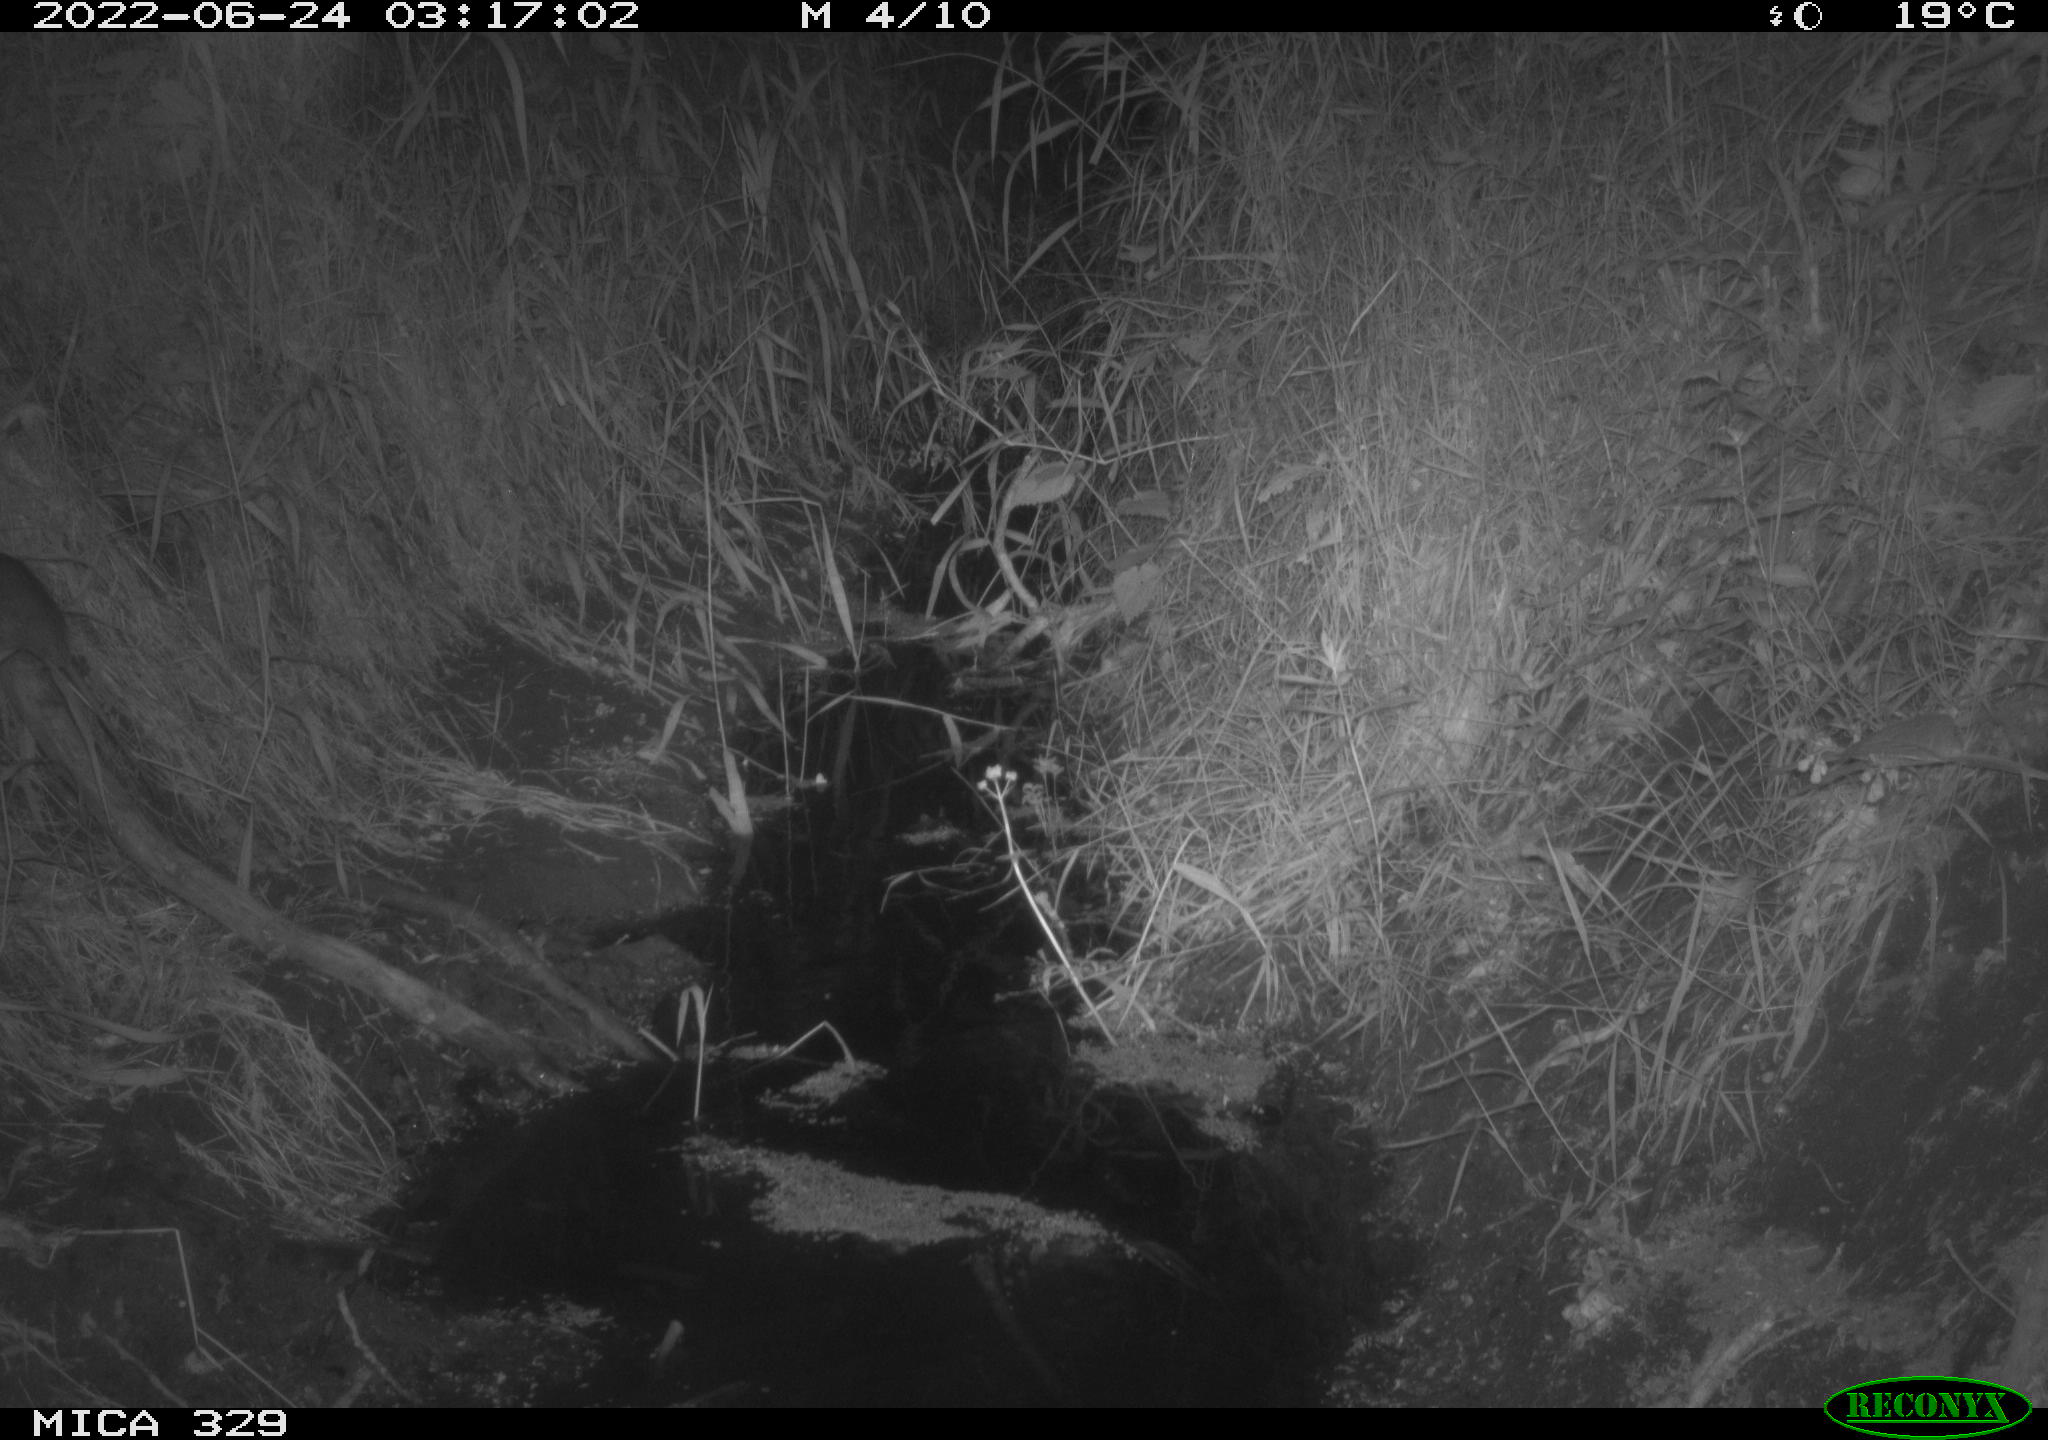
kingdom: Animalia
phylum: Chordata
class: Mammalia
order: Rodentia
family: Muridae
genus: Rattus
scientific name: Rattus norvegicus
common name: Brown rat
